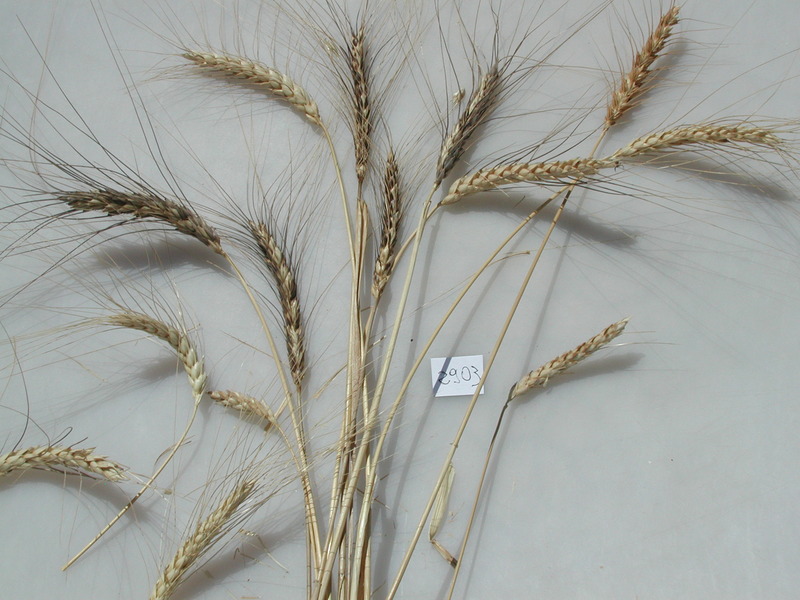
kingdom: Plantae
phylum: Tracheophyta
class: Liliopsida
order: Poales
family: Poaceae
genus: Triticum
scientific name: Triticum turgidum
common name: Wheat
